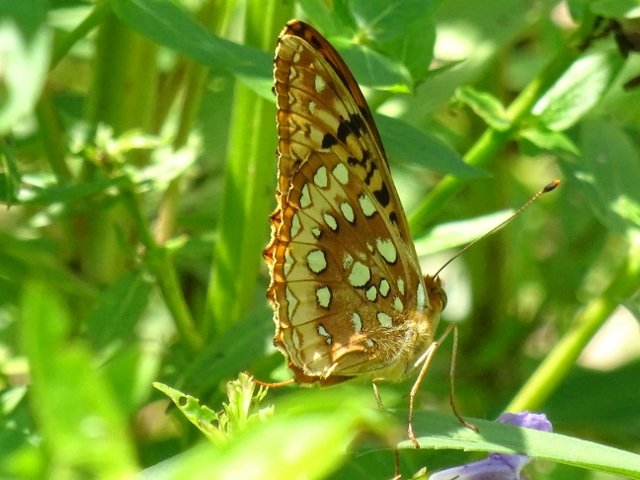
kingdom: Animalia
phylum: Arthropoda
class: Insecta
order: Lepidoptera
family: Nymphalidae
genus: Speyeria
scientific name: Speyeria cybele
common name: Great Spangled Fritillary
